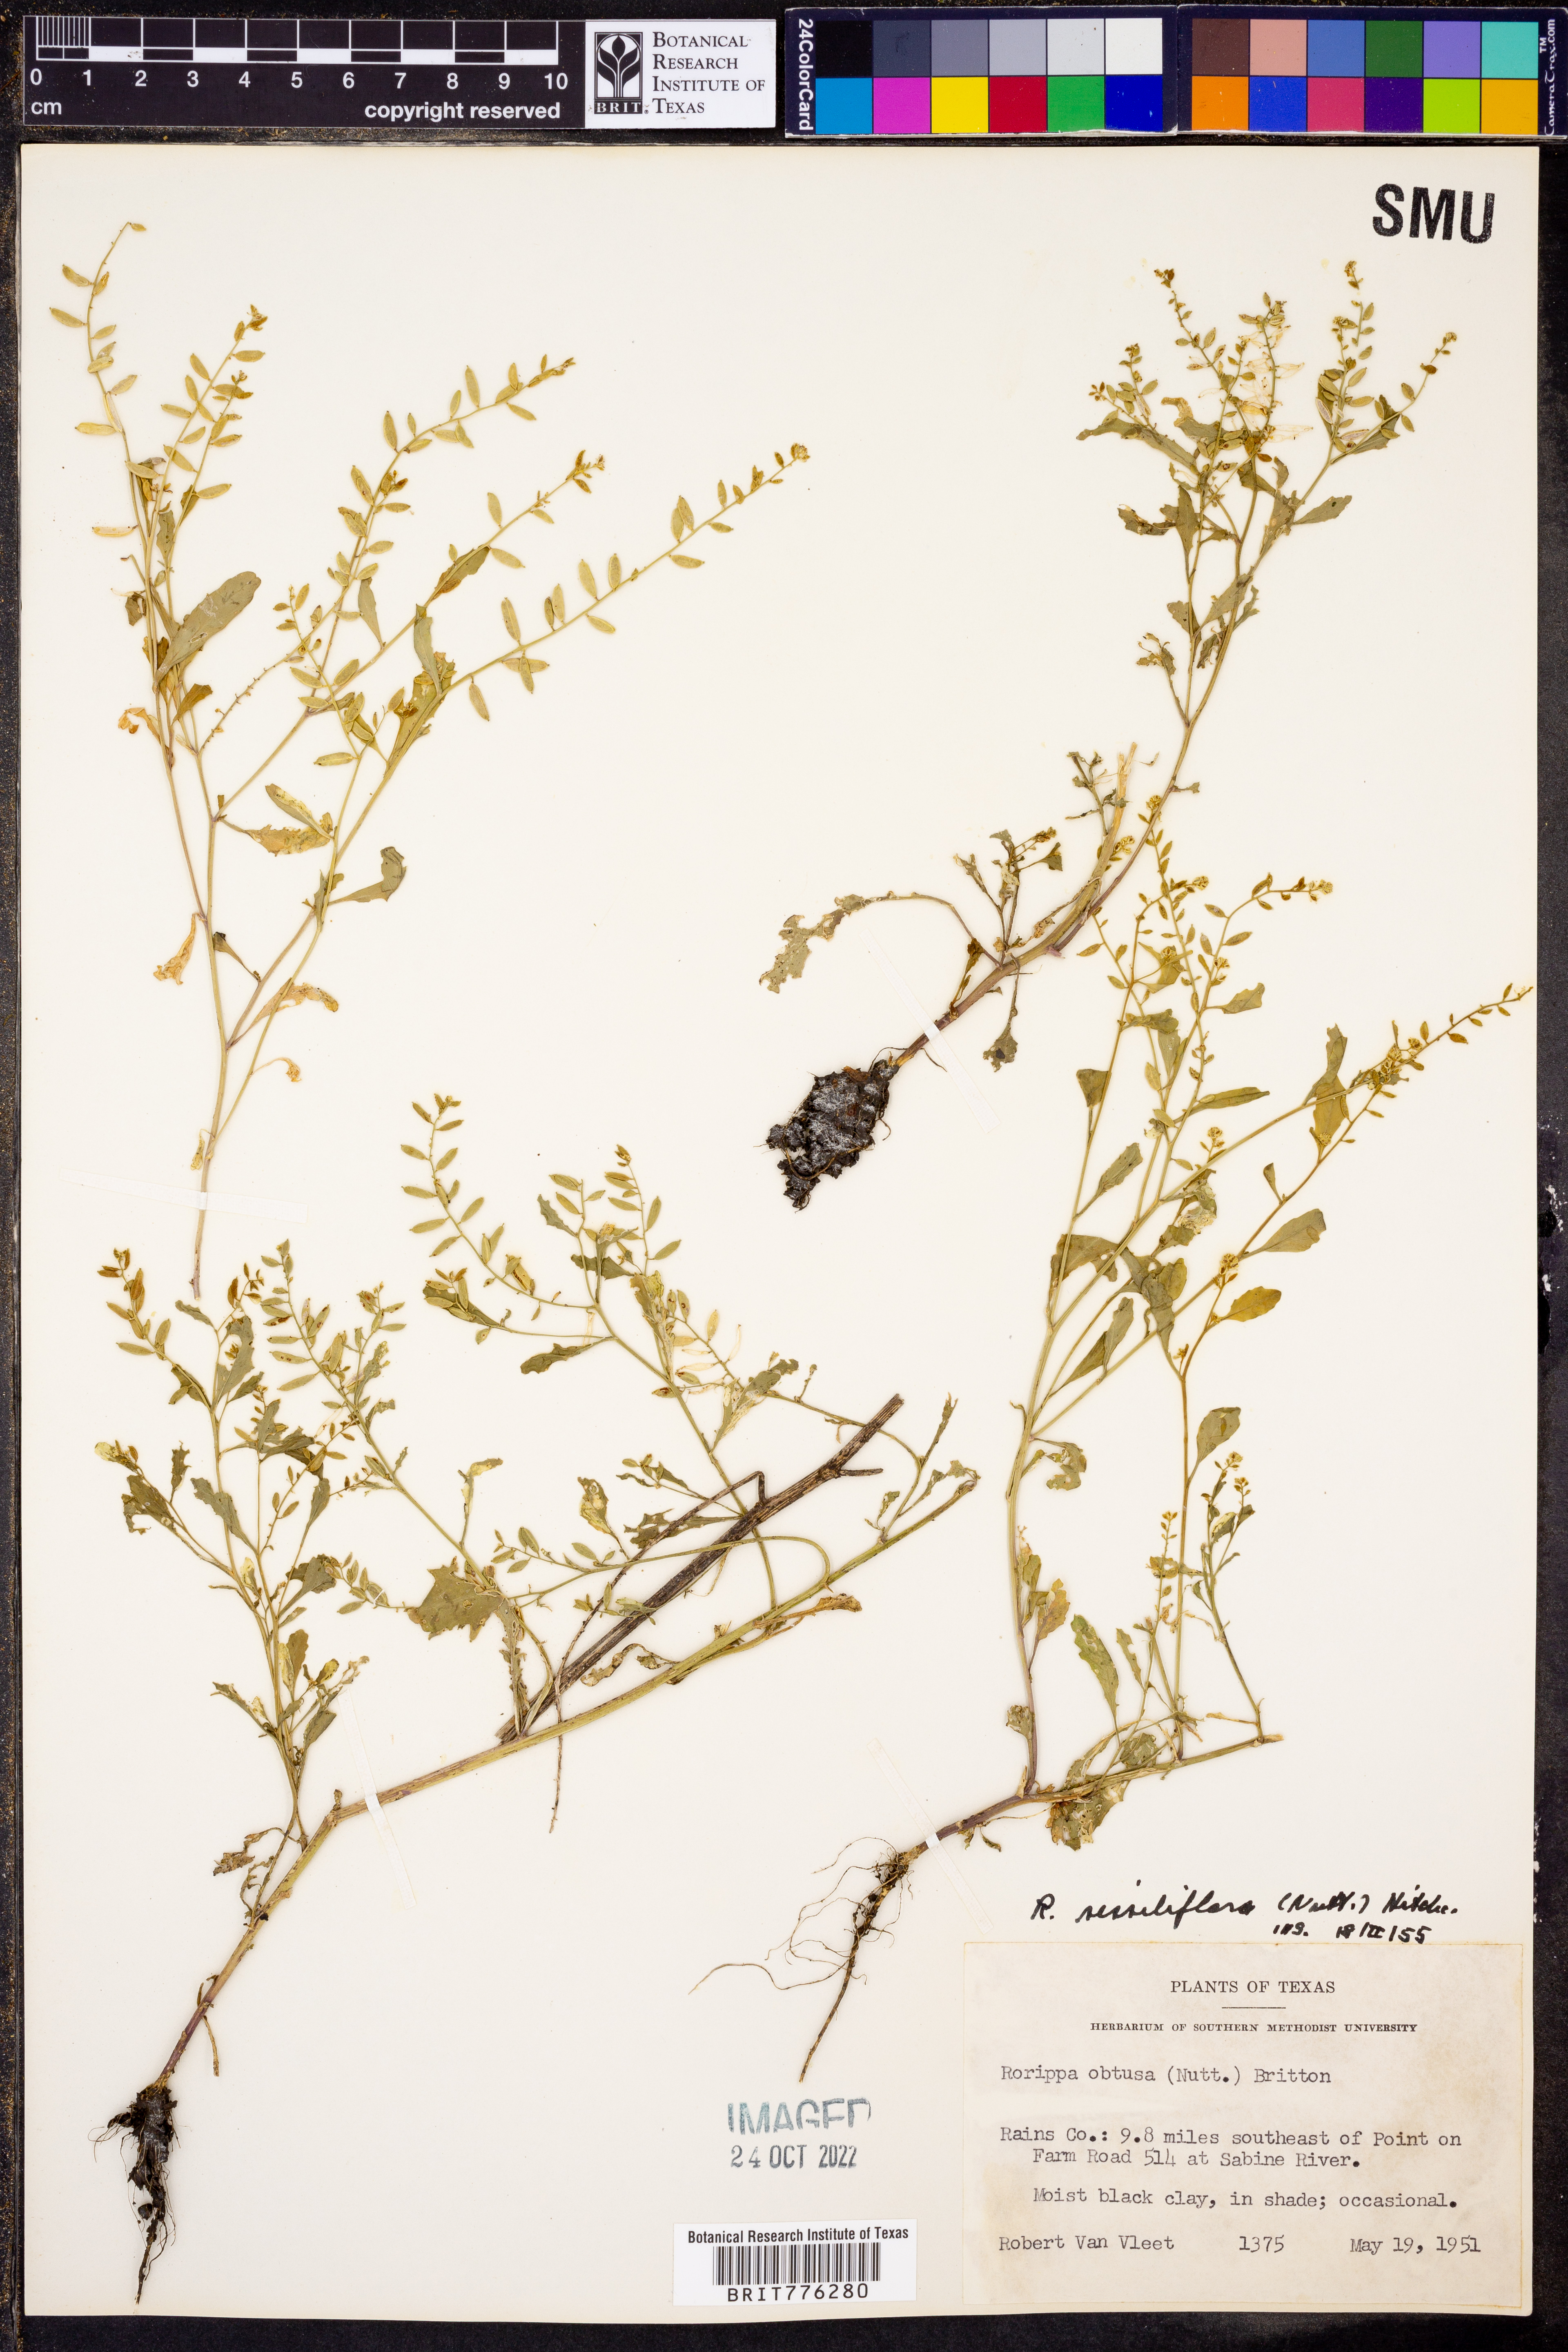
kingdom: Plantae
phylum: Tracheophyta
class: Magnoliopsida
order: Brassicales
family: Brassicaceae
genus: Rorippa
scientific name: Rorippa sessiliflora
